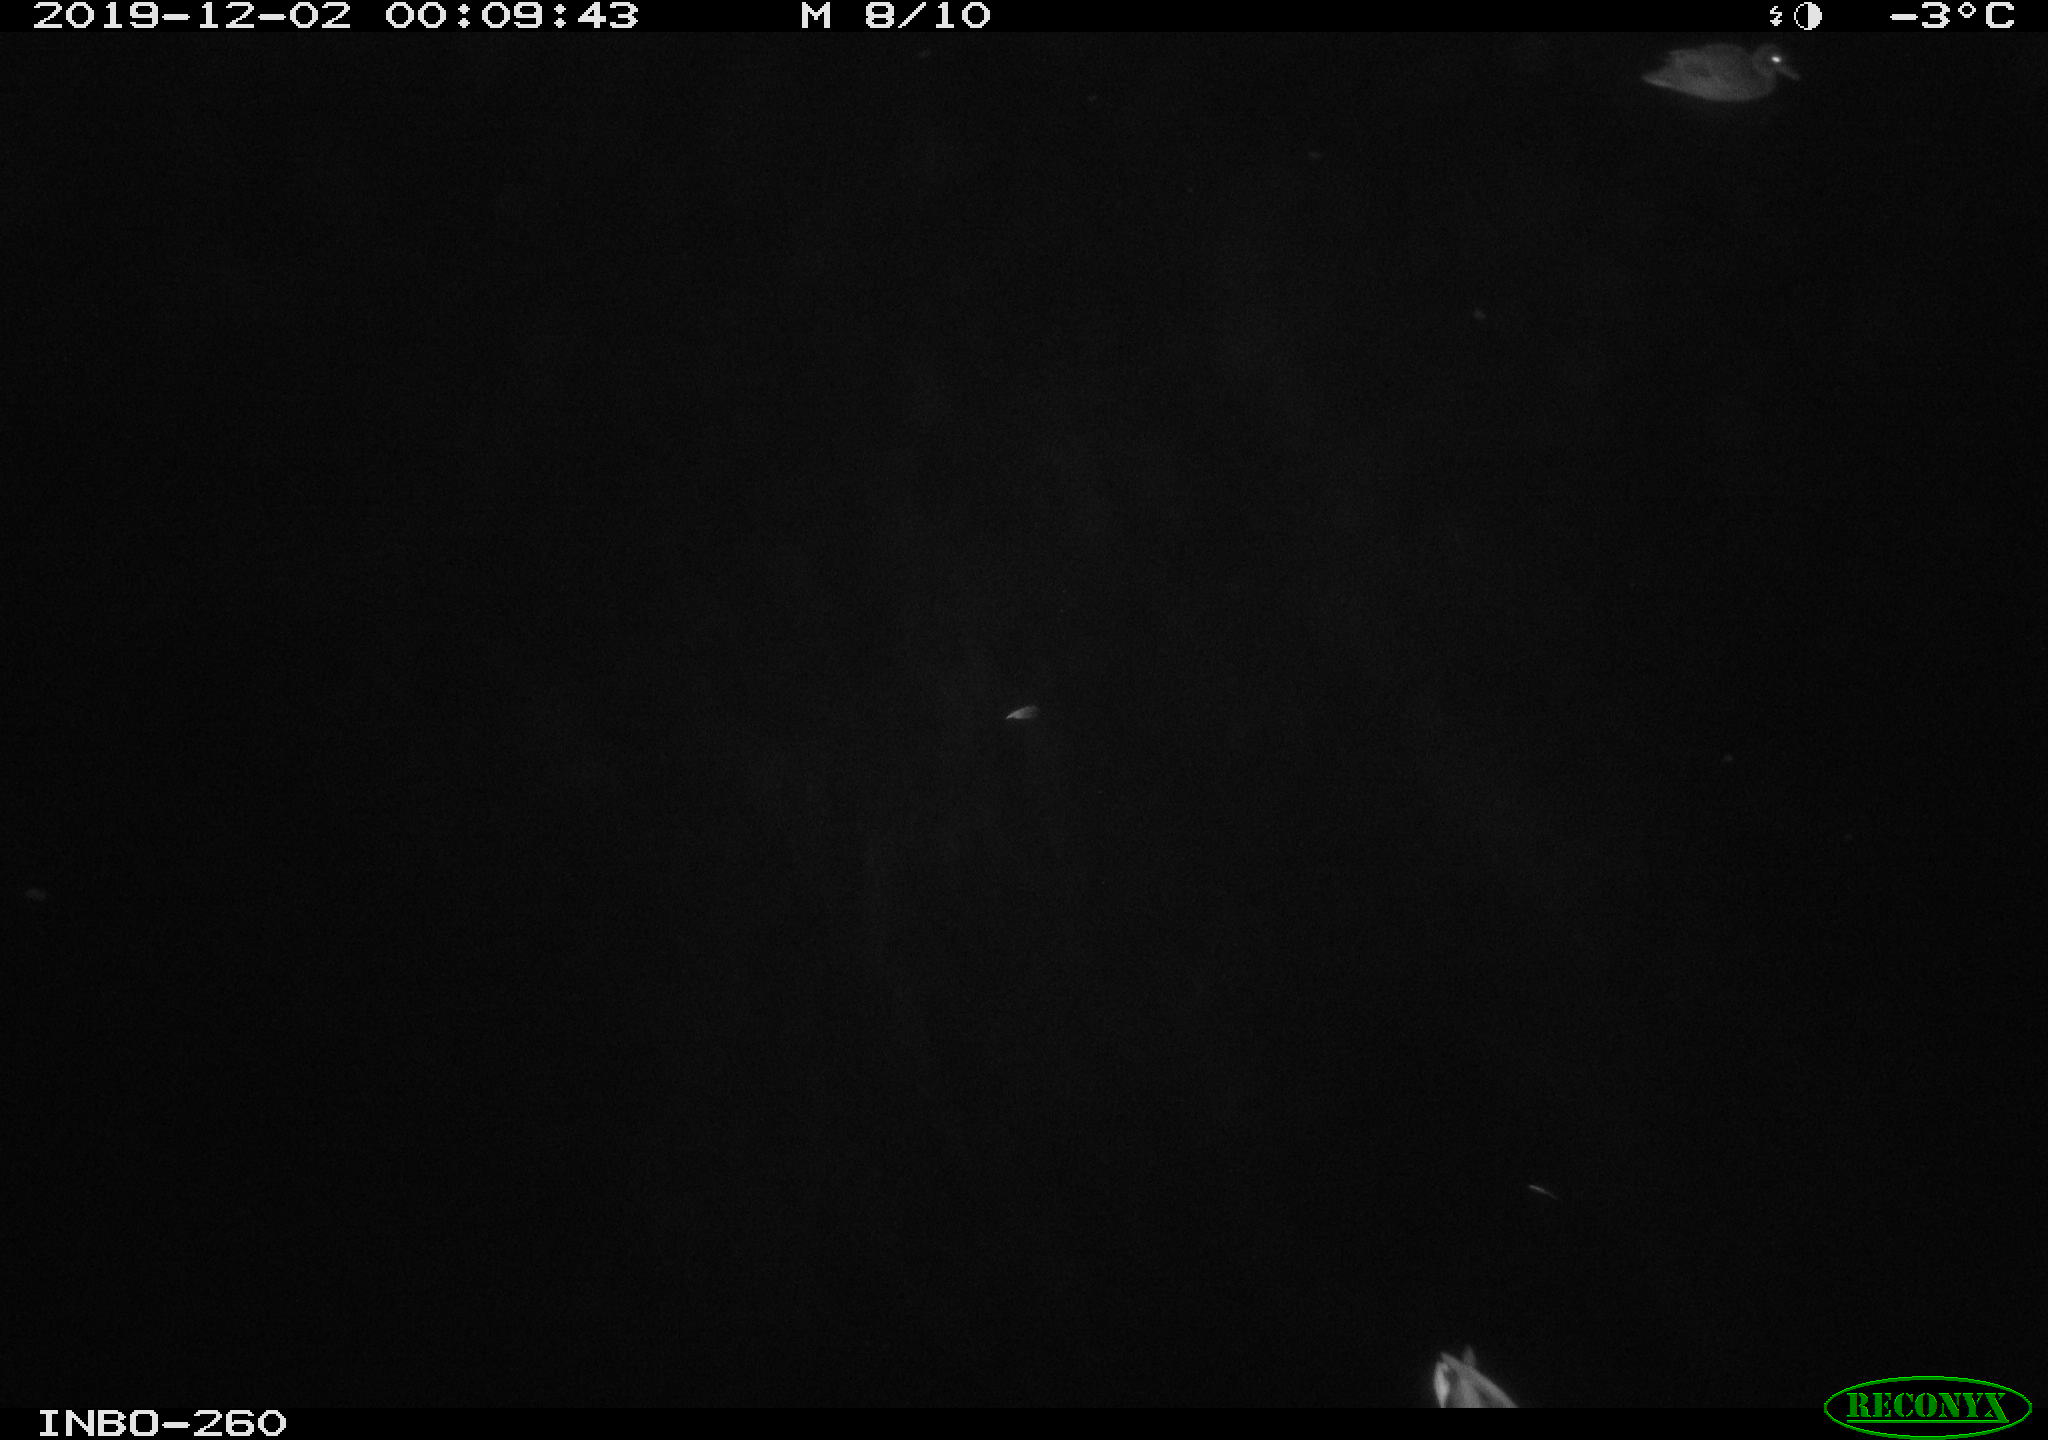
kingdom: Animalia
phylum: Chordata
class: Aves
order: Anseriformes
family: Anatidae
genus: Anas
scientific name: Anas platyrhynchos
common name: Mallard
